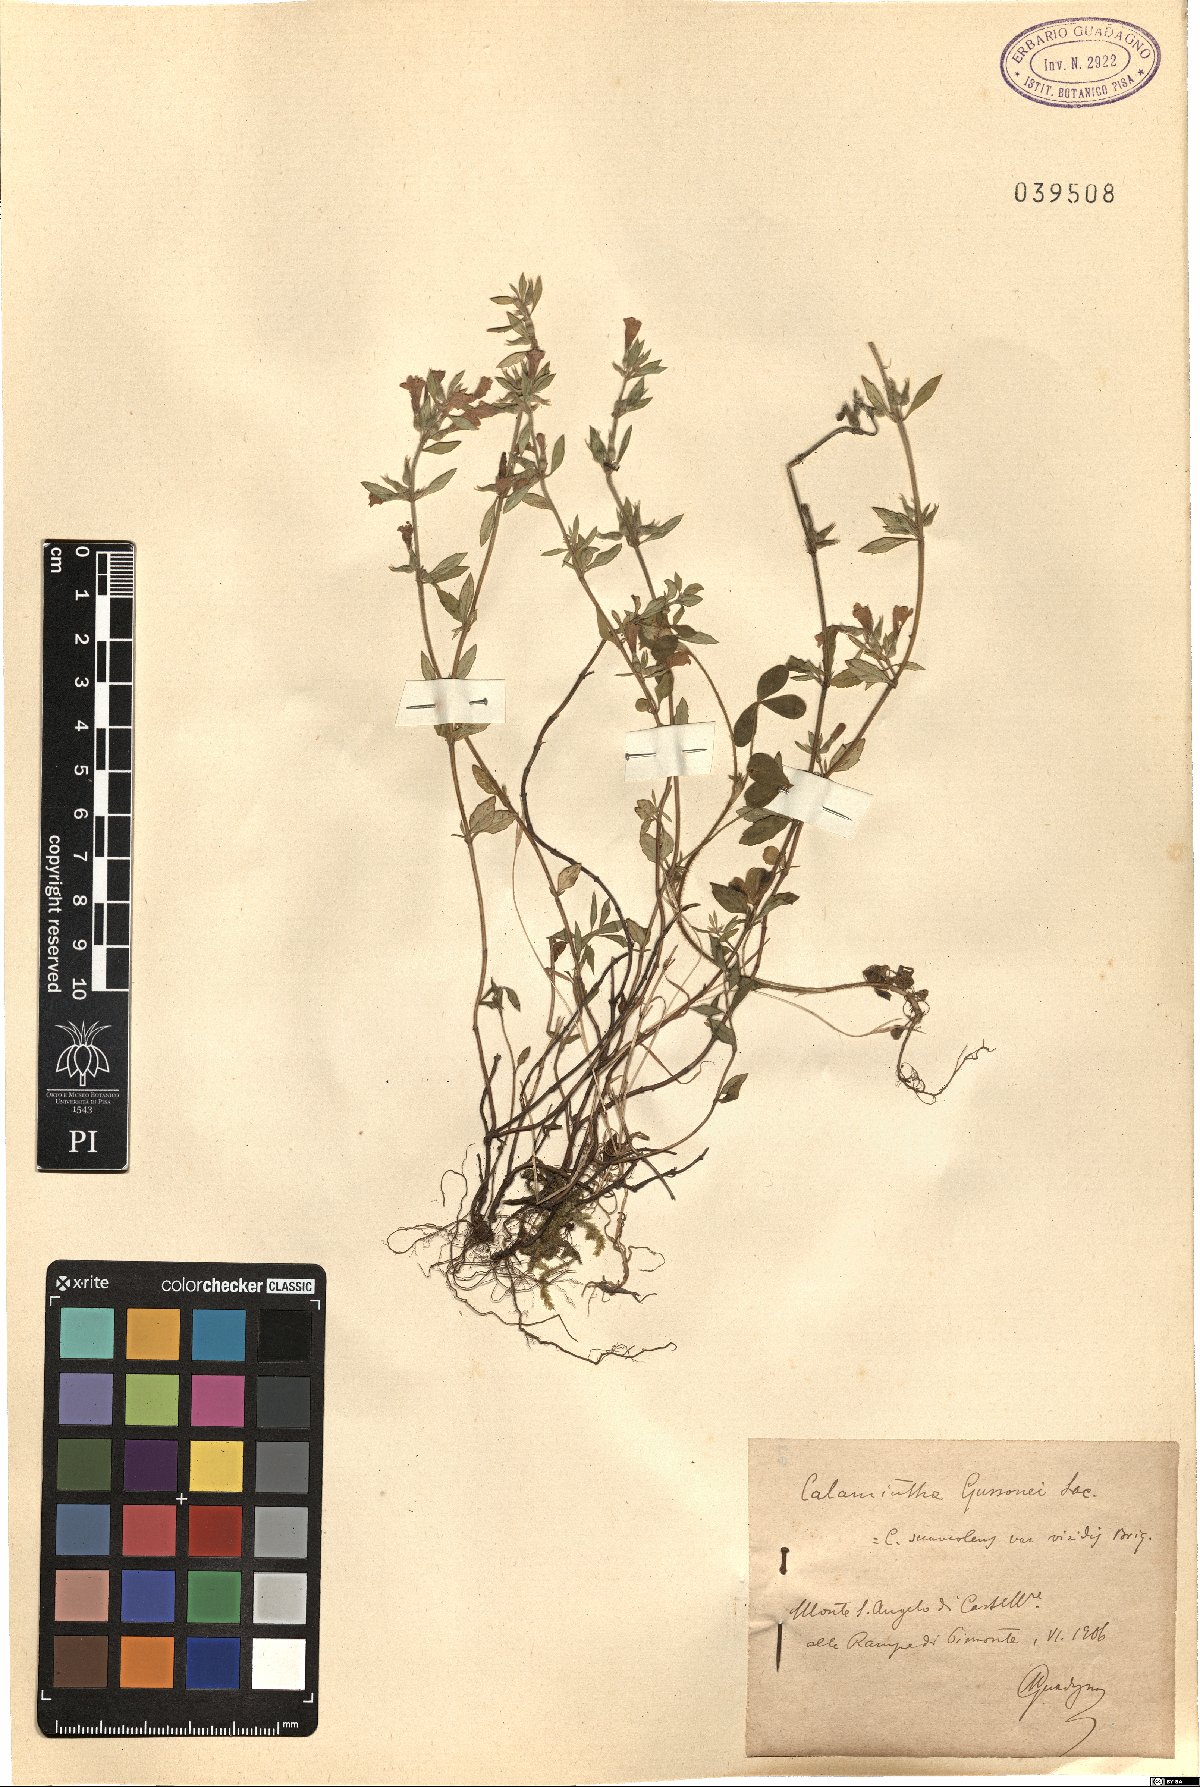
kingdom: Plantae
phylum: Tracheophyta
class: Magnoliopsida
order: Lamiales
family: Lamiaceae
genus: Clinopodium
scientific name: Clinopodium suaveolens
